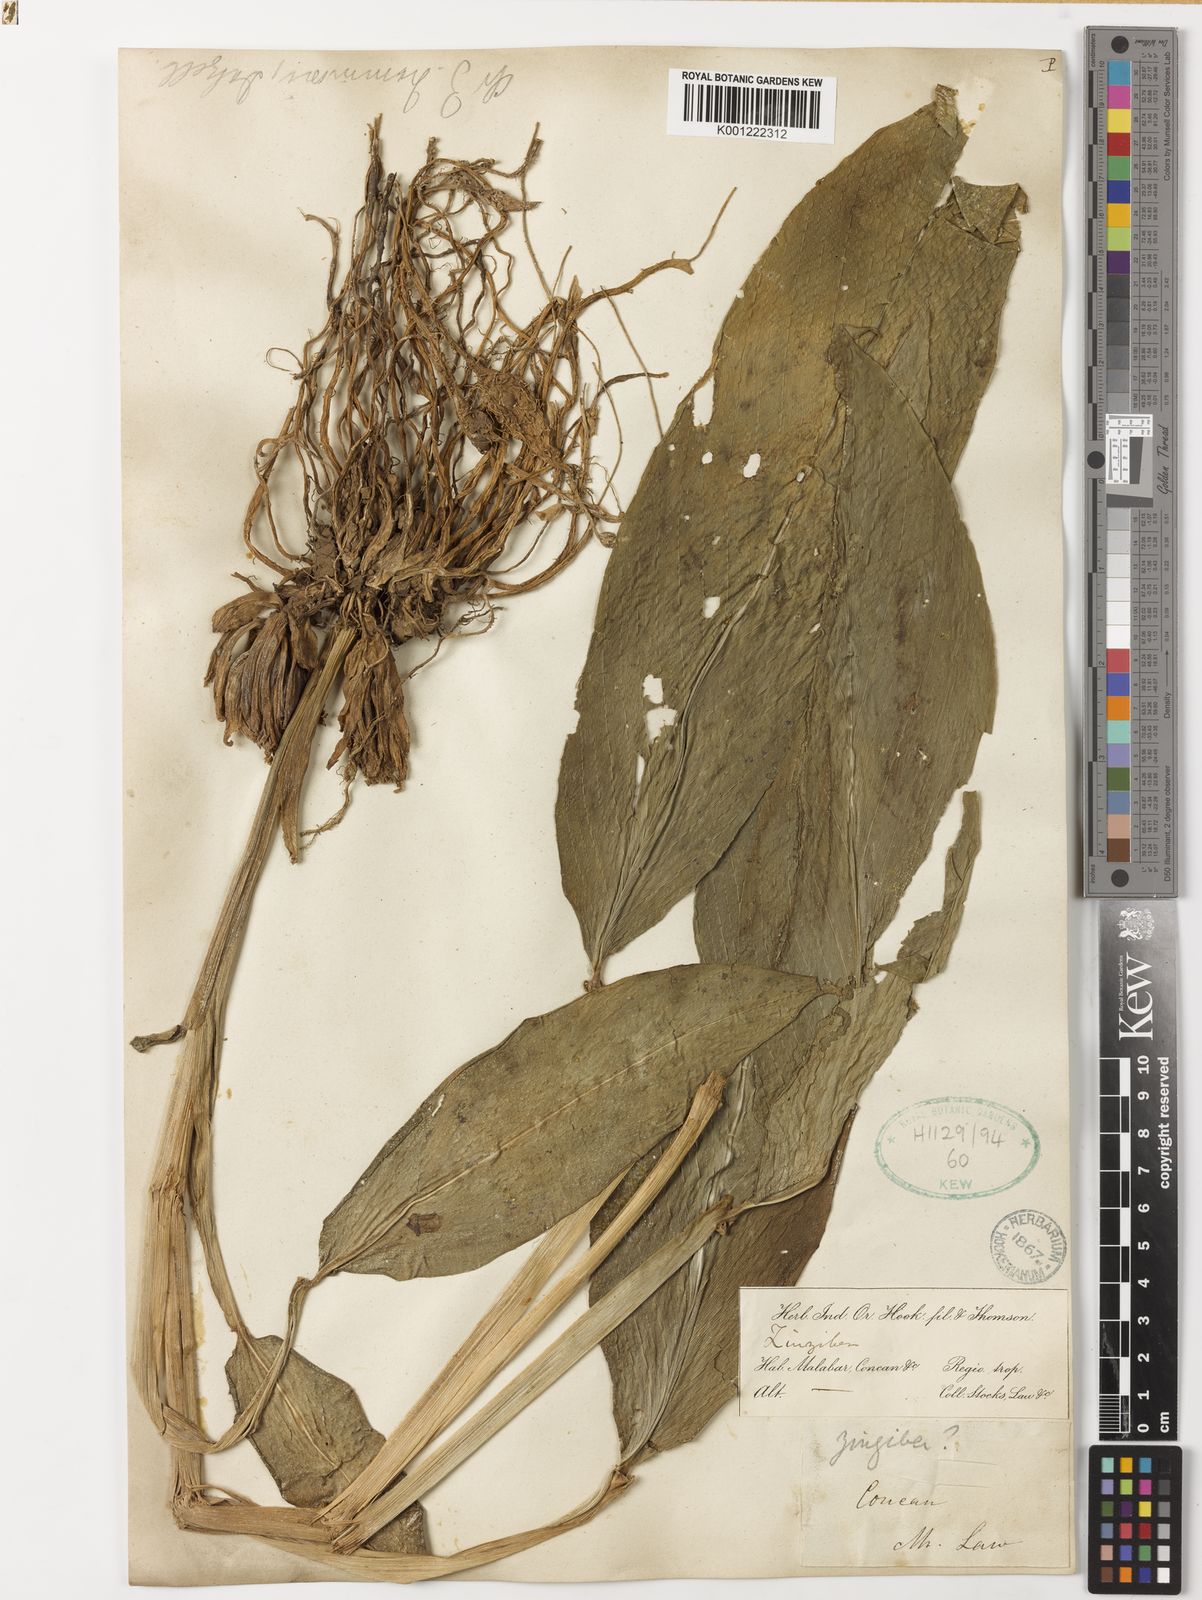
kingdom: Plantae
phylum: Tracheophyta
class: Liliopsida
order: Zingiberales
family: Zingiberaceae
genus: Zingiber
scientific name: Zingiber
